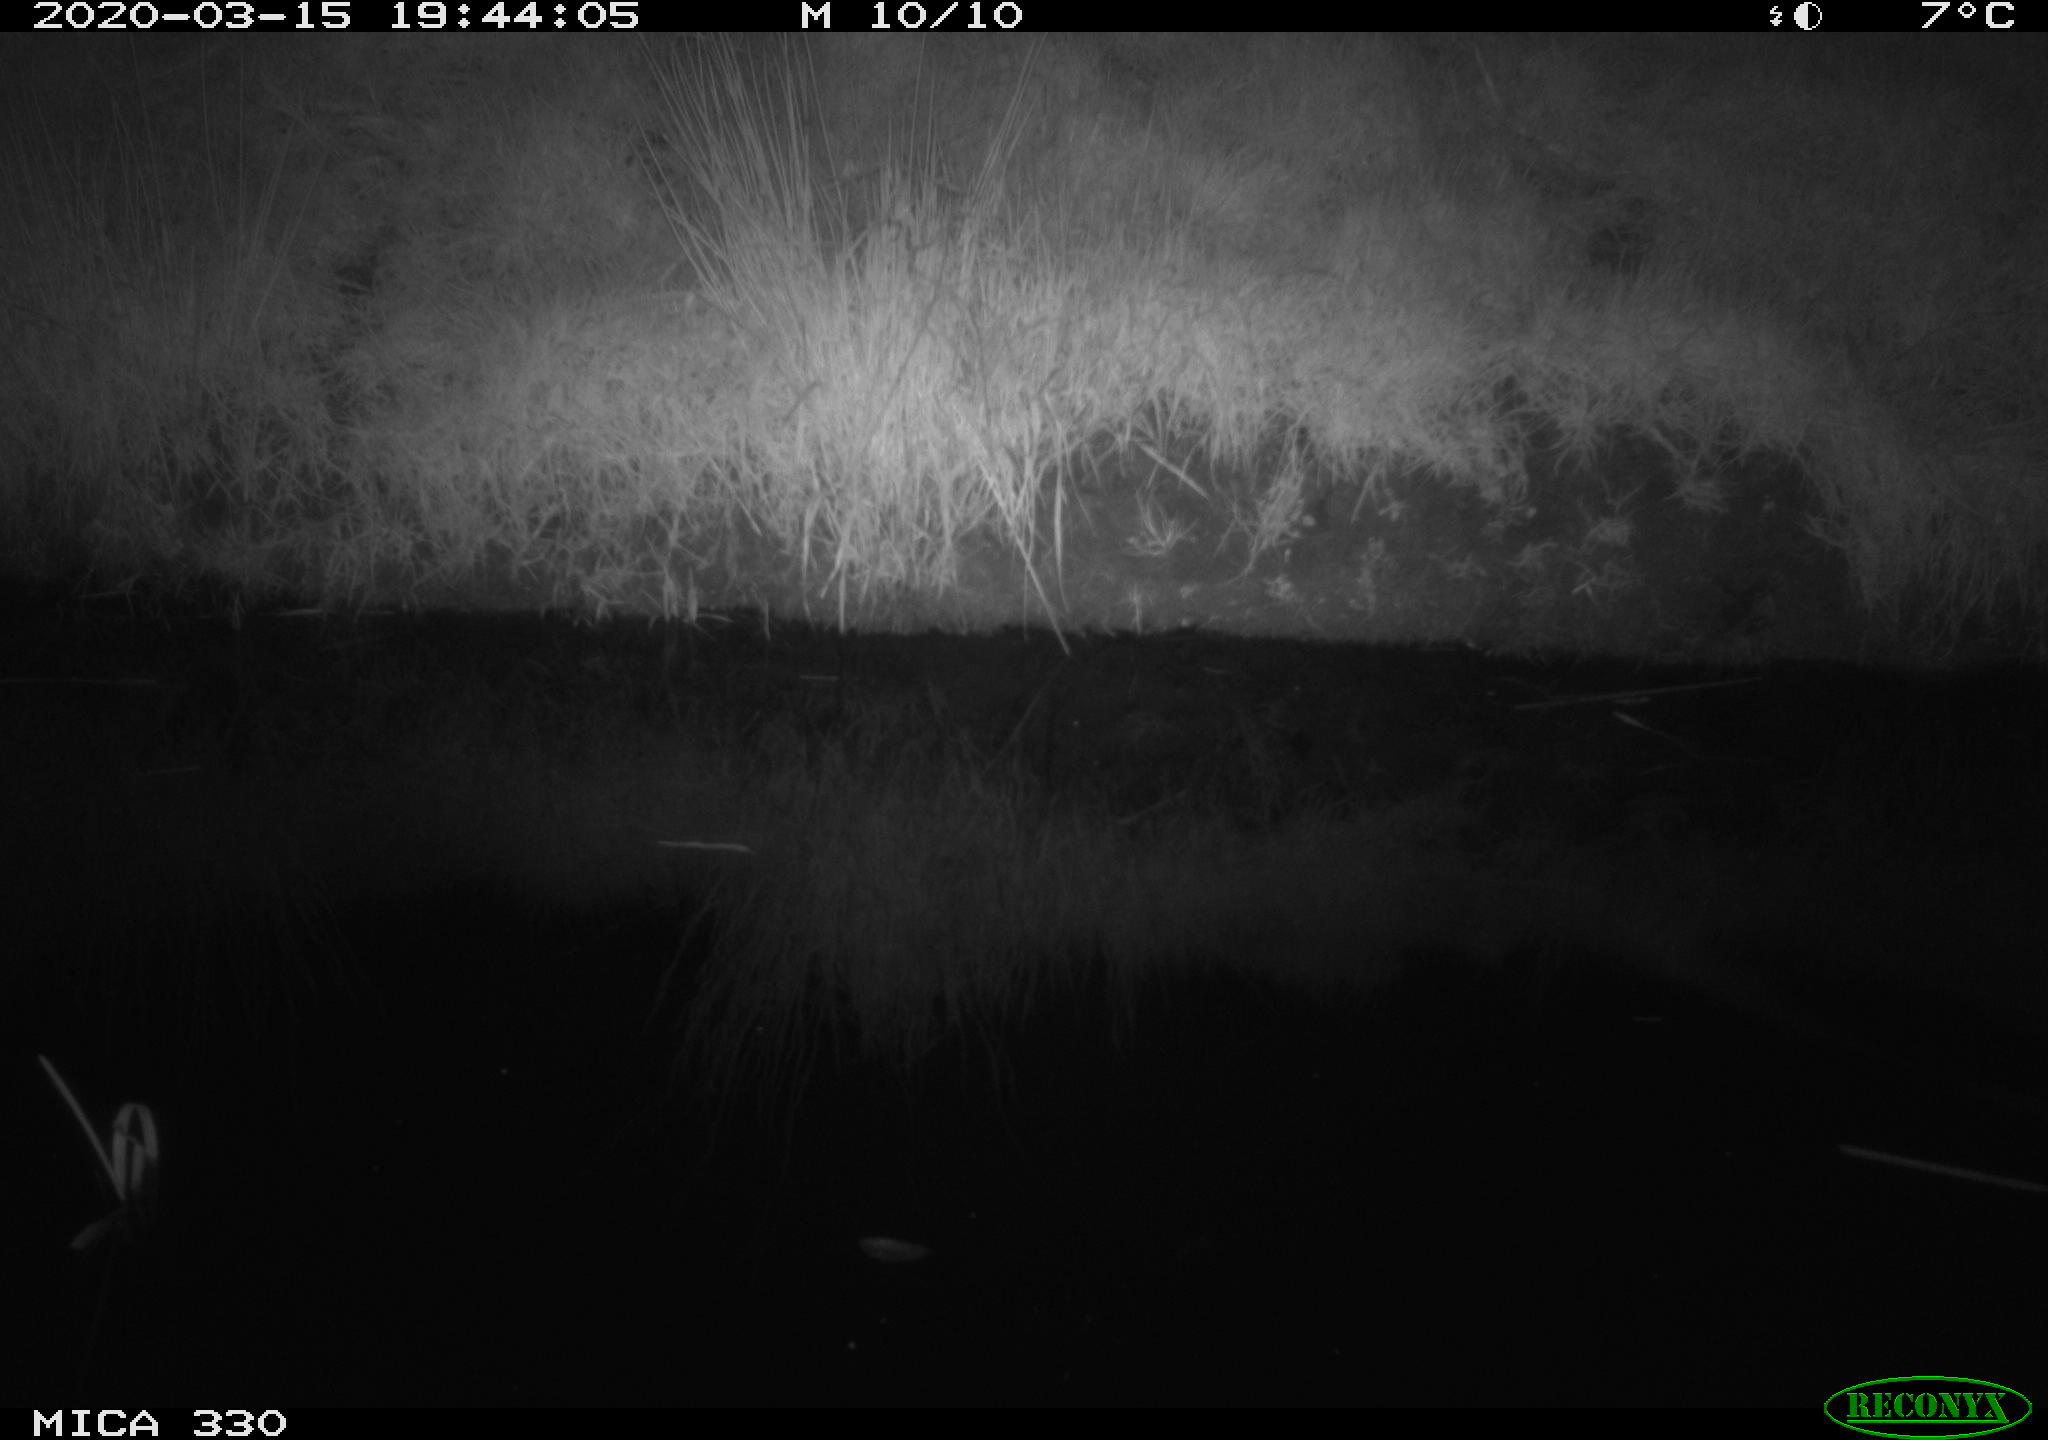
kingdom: Animalia
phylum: Chordata
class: Aves
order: Anseriformes
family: Anatidae
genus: Anas
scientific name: Anas platyrhynchos
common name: Mallard
